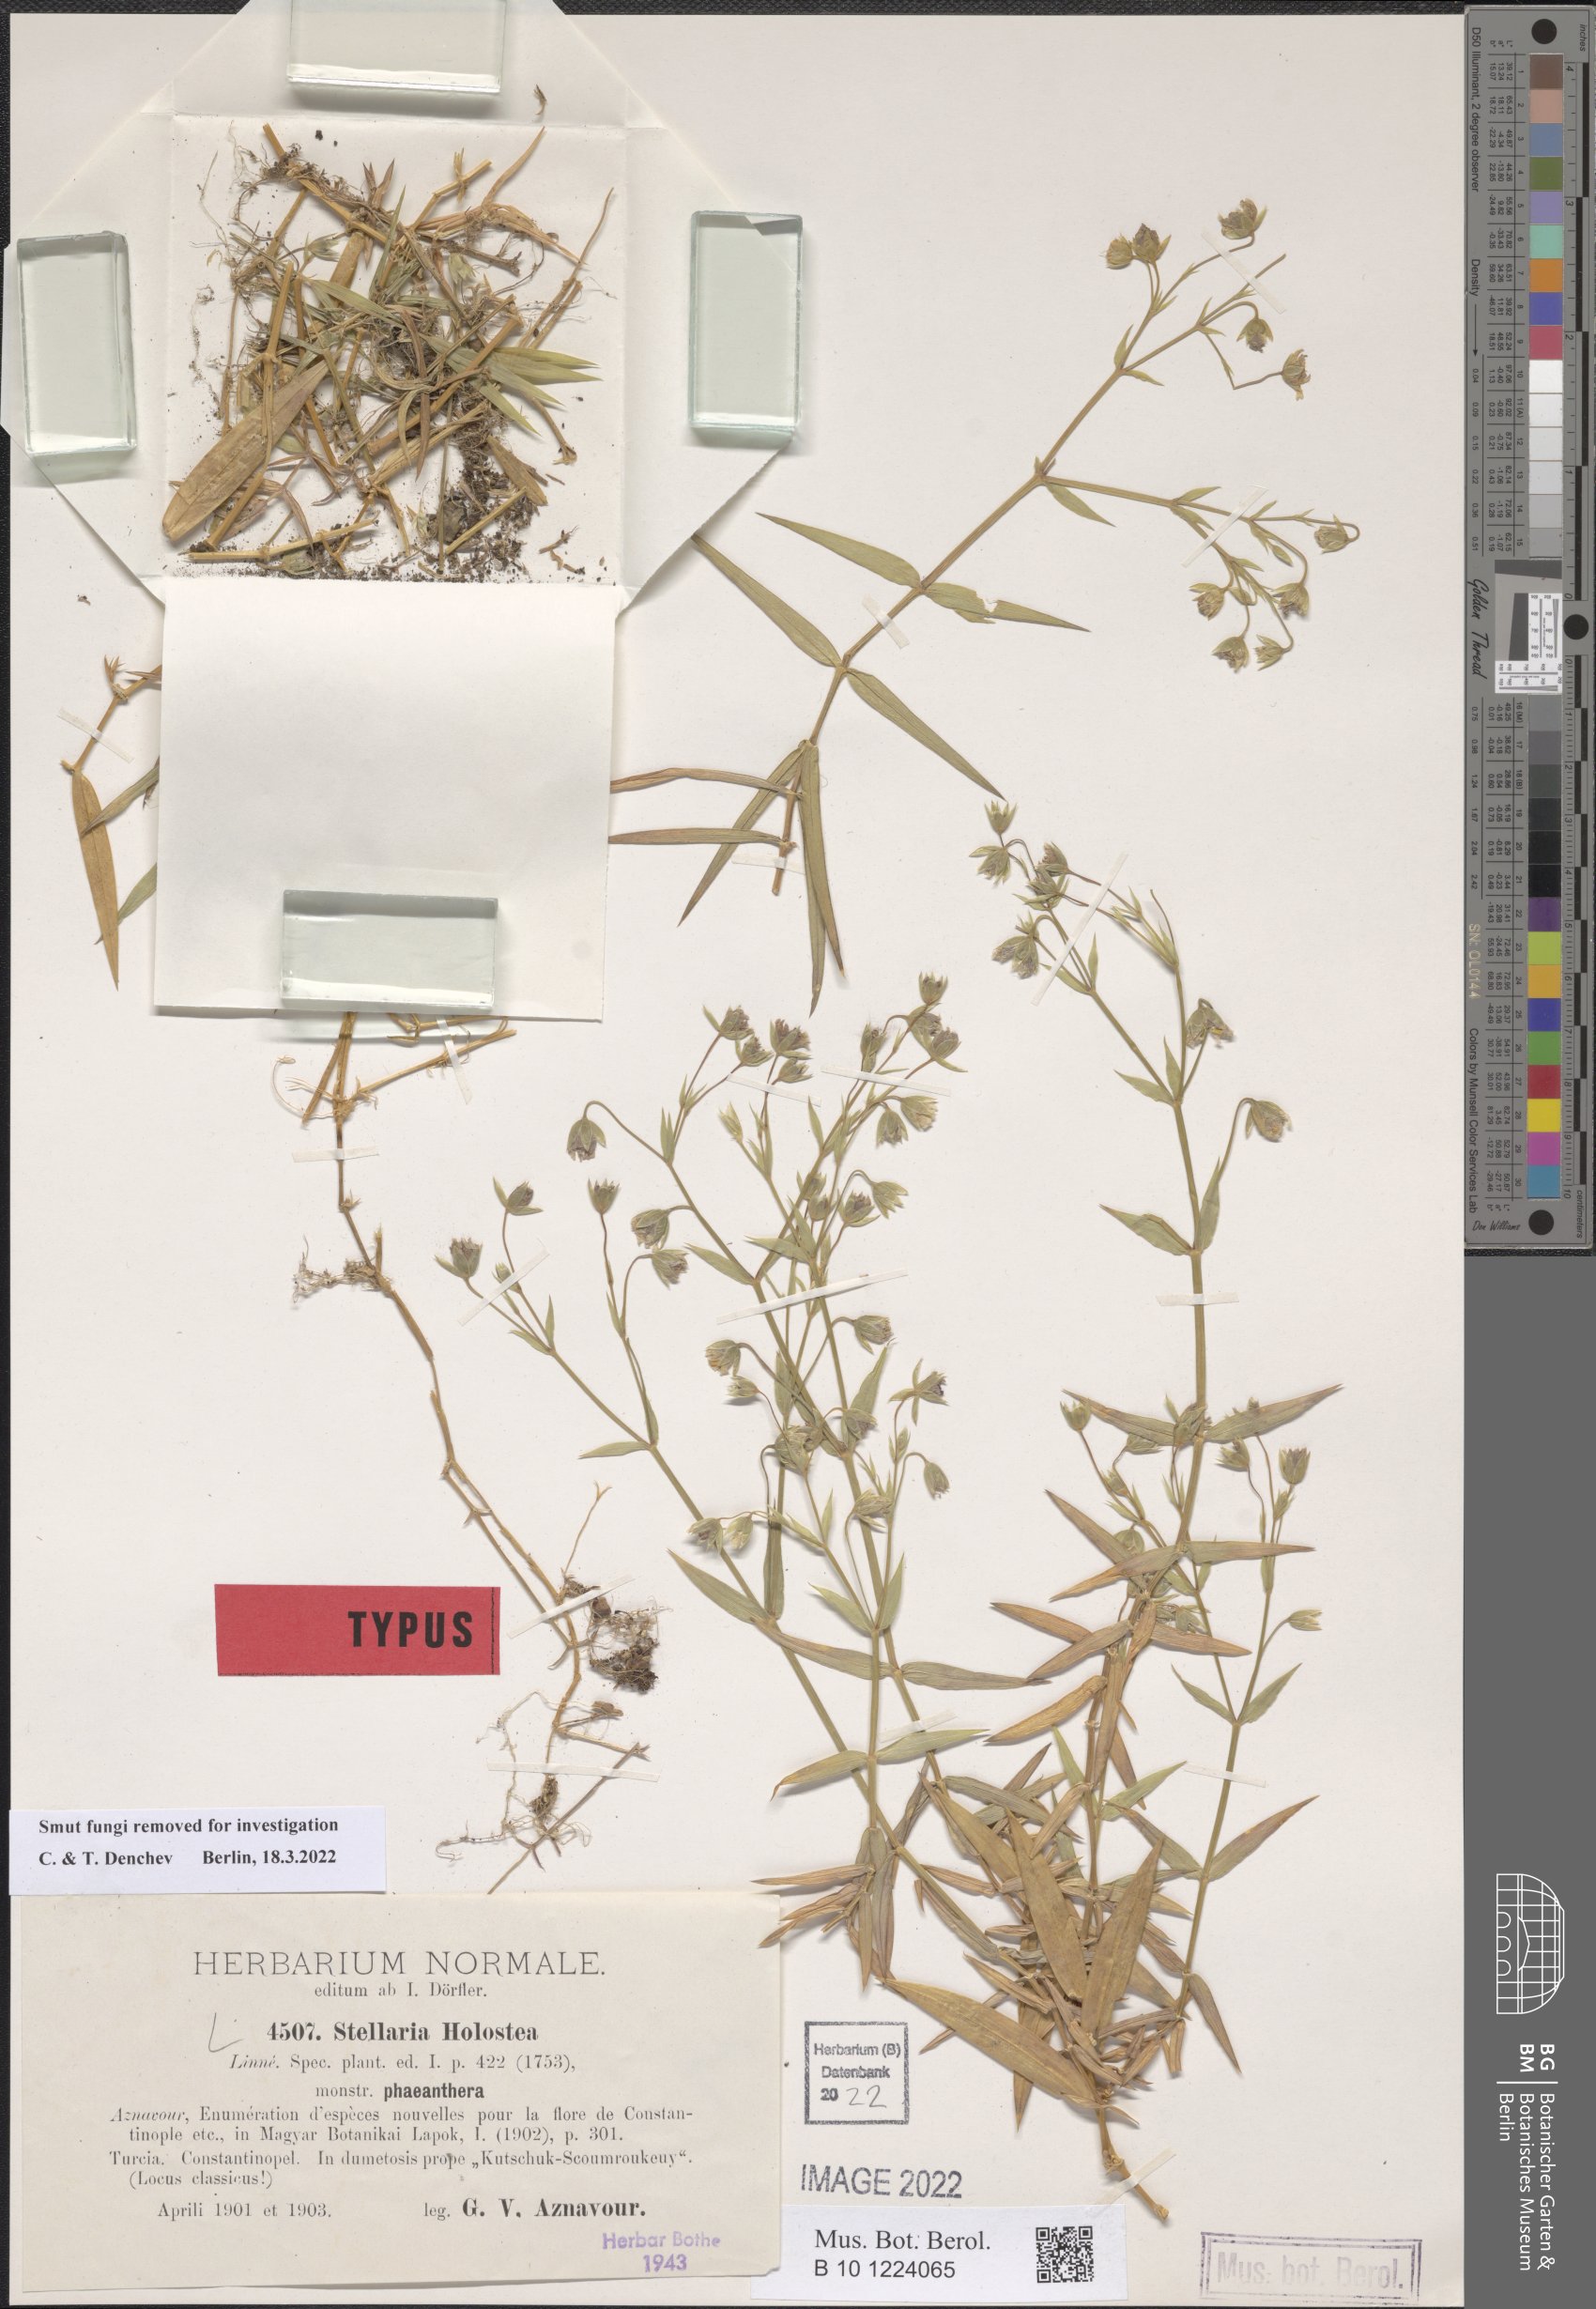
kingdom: Plantae
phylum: Tracheophyta
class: Magnoliopsida
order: Caryophyllales
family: Caryophyllaceae
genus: Rabelera
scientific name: Rabelera holostea
